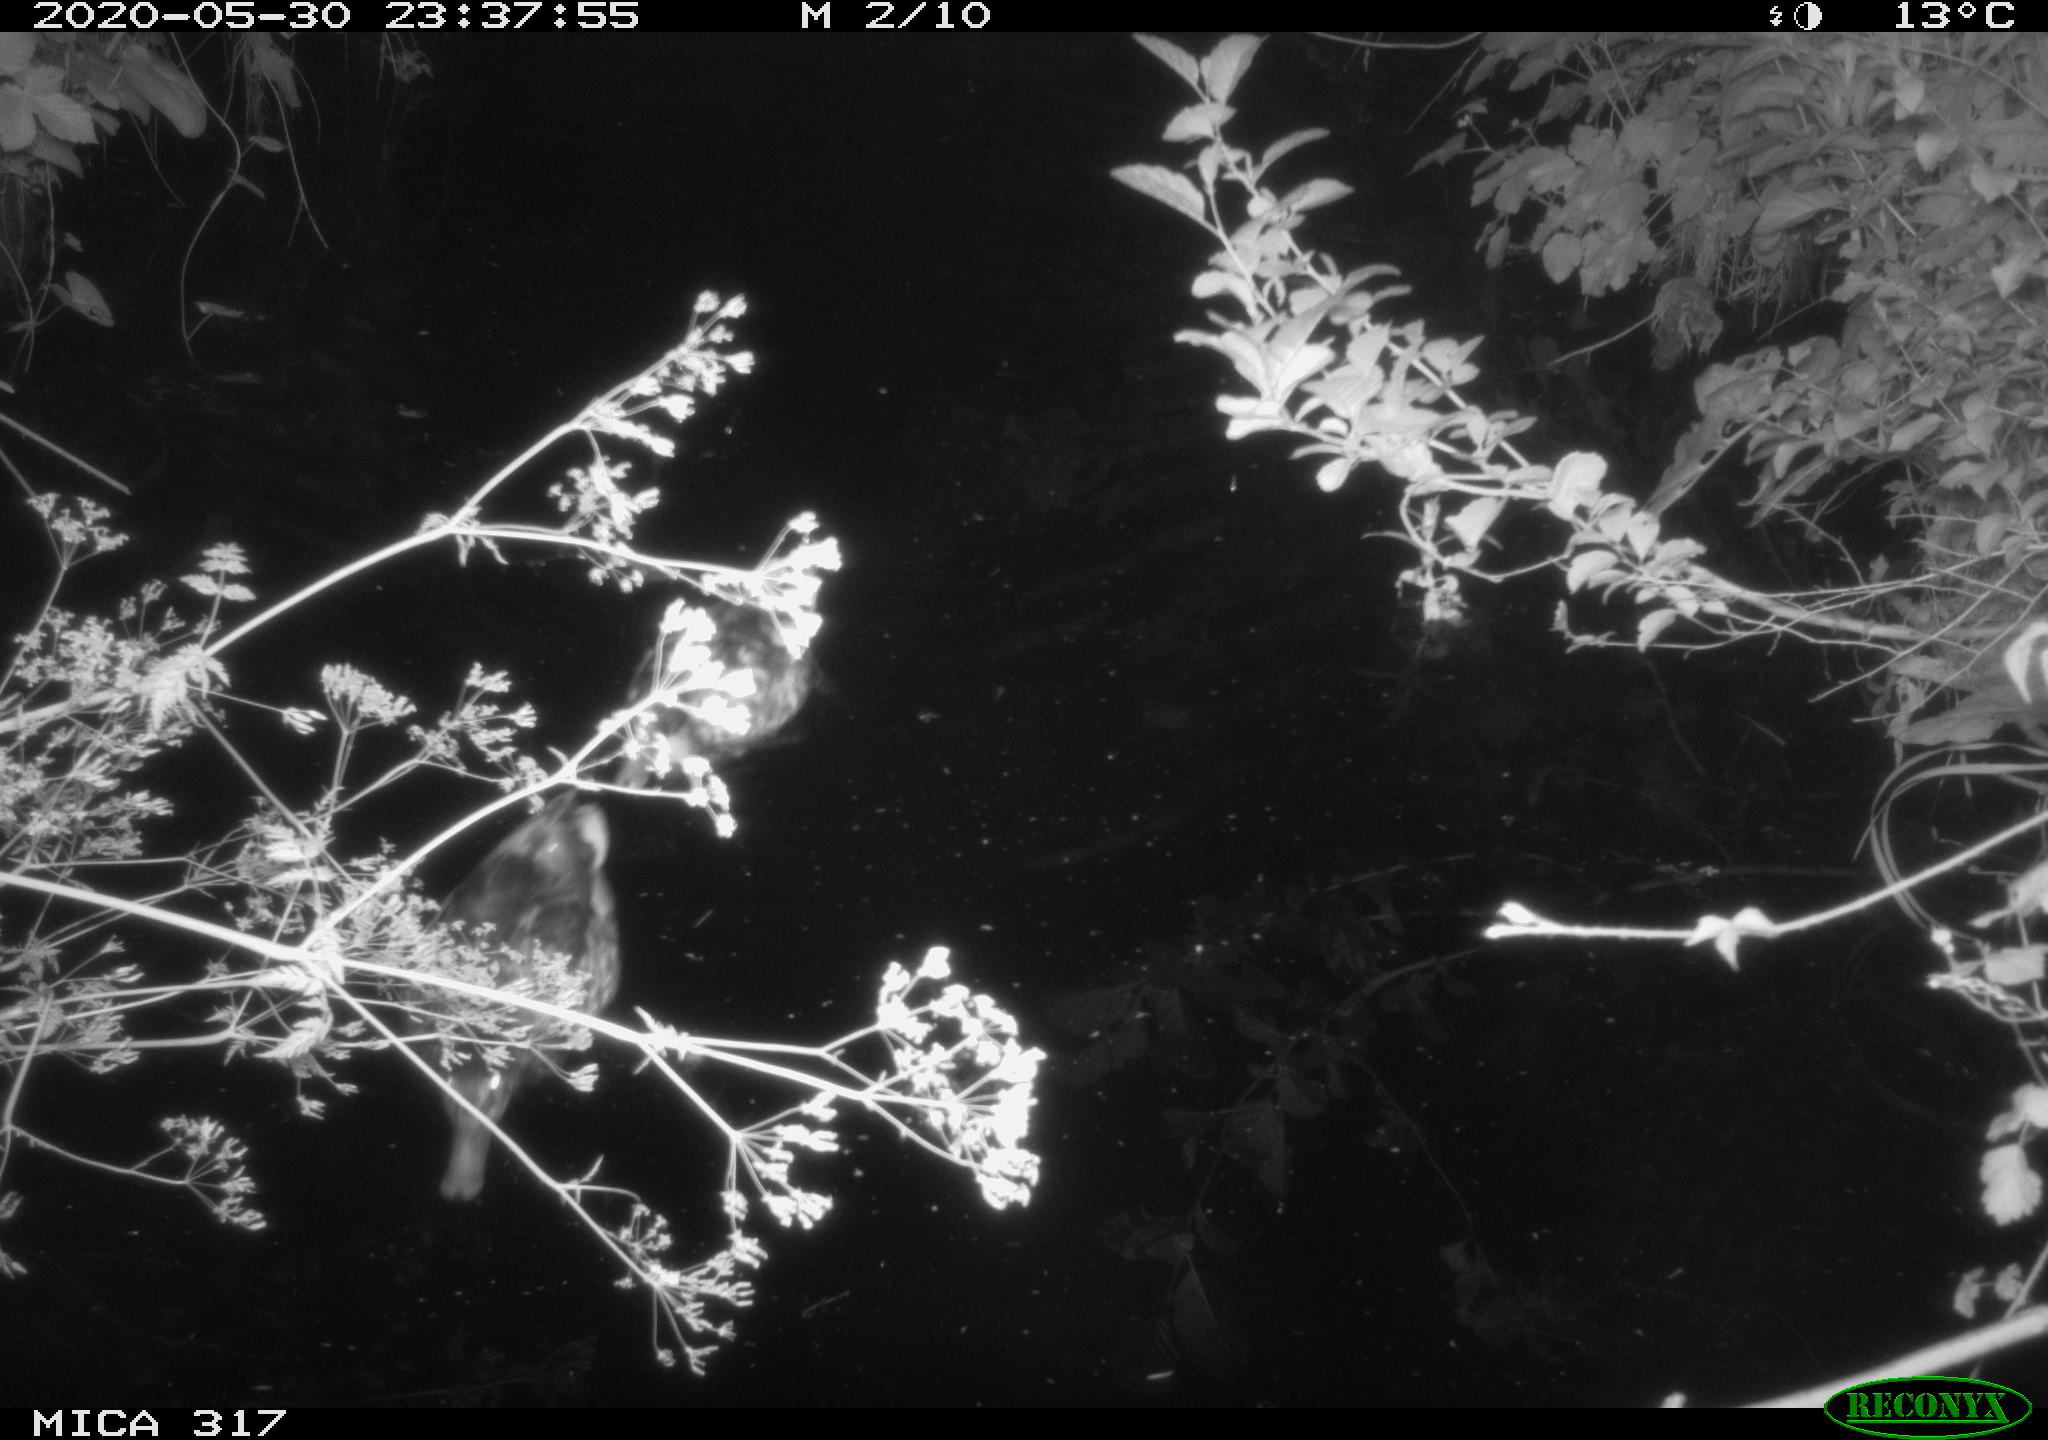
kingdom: Animalia
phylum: Chordata
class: Aves
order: Anseriformes
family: Anatidae
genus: Anas
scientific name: Anas platyrhynchos
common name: Mallard
